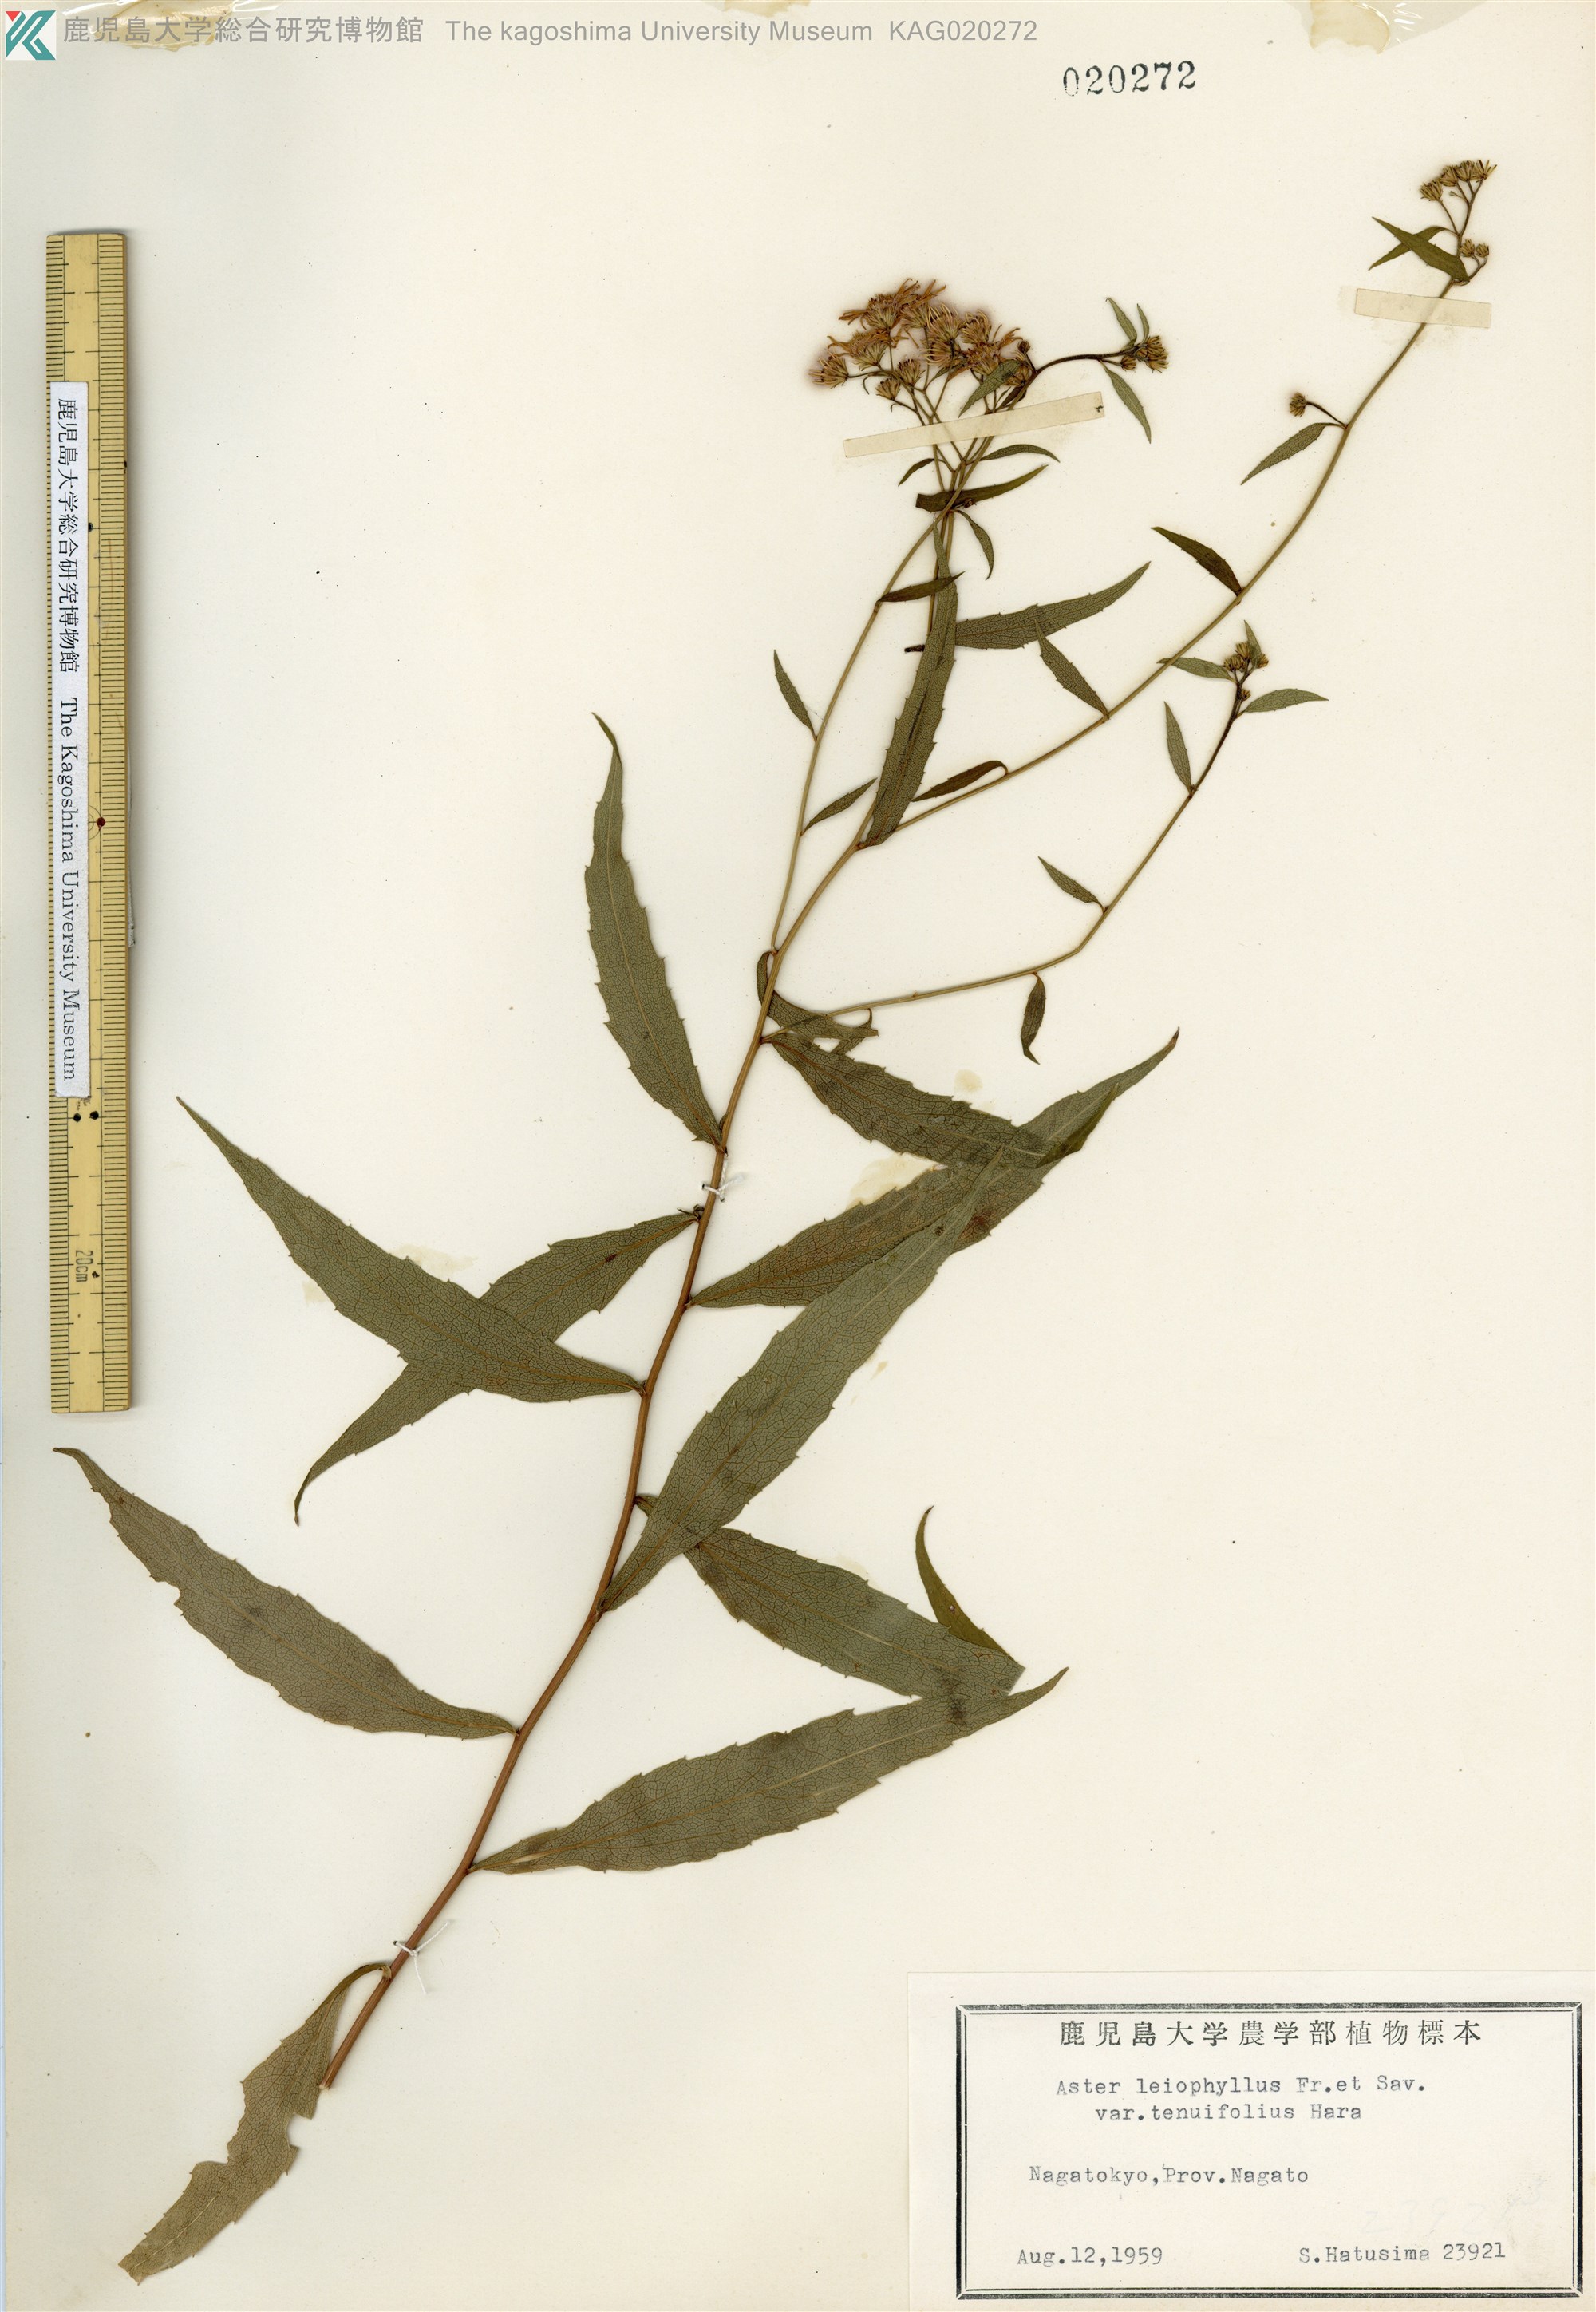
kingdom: Plantae
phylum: Tracheophyta
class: Magnoliopsida
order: Asterales
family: Asteraceae
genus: Aster
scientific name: Aster ageratoides
